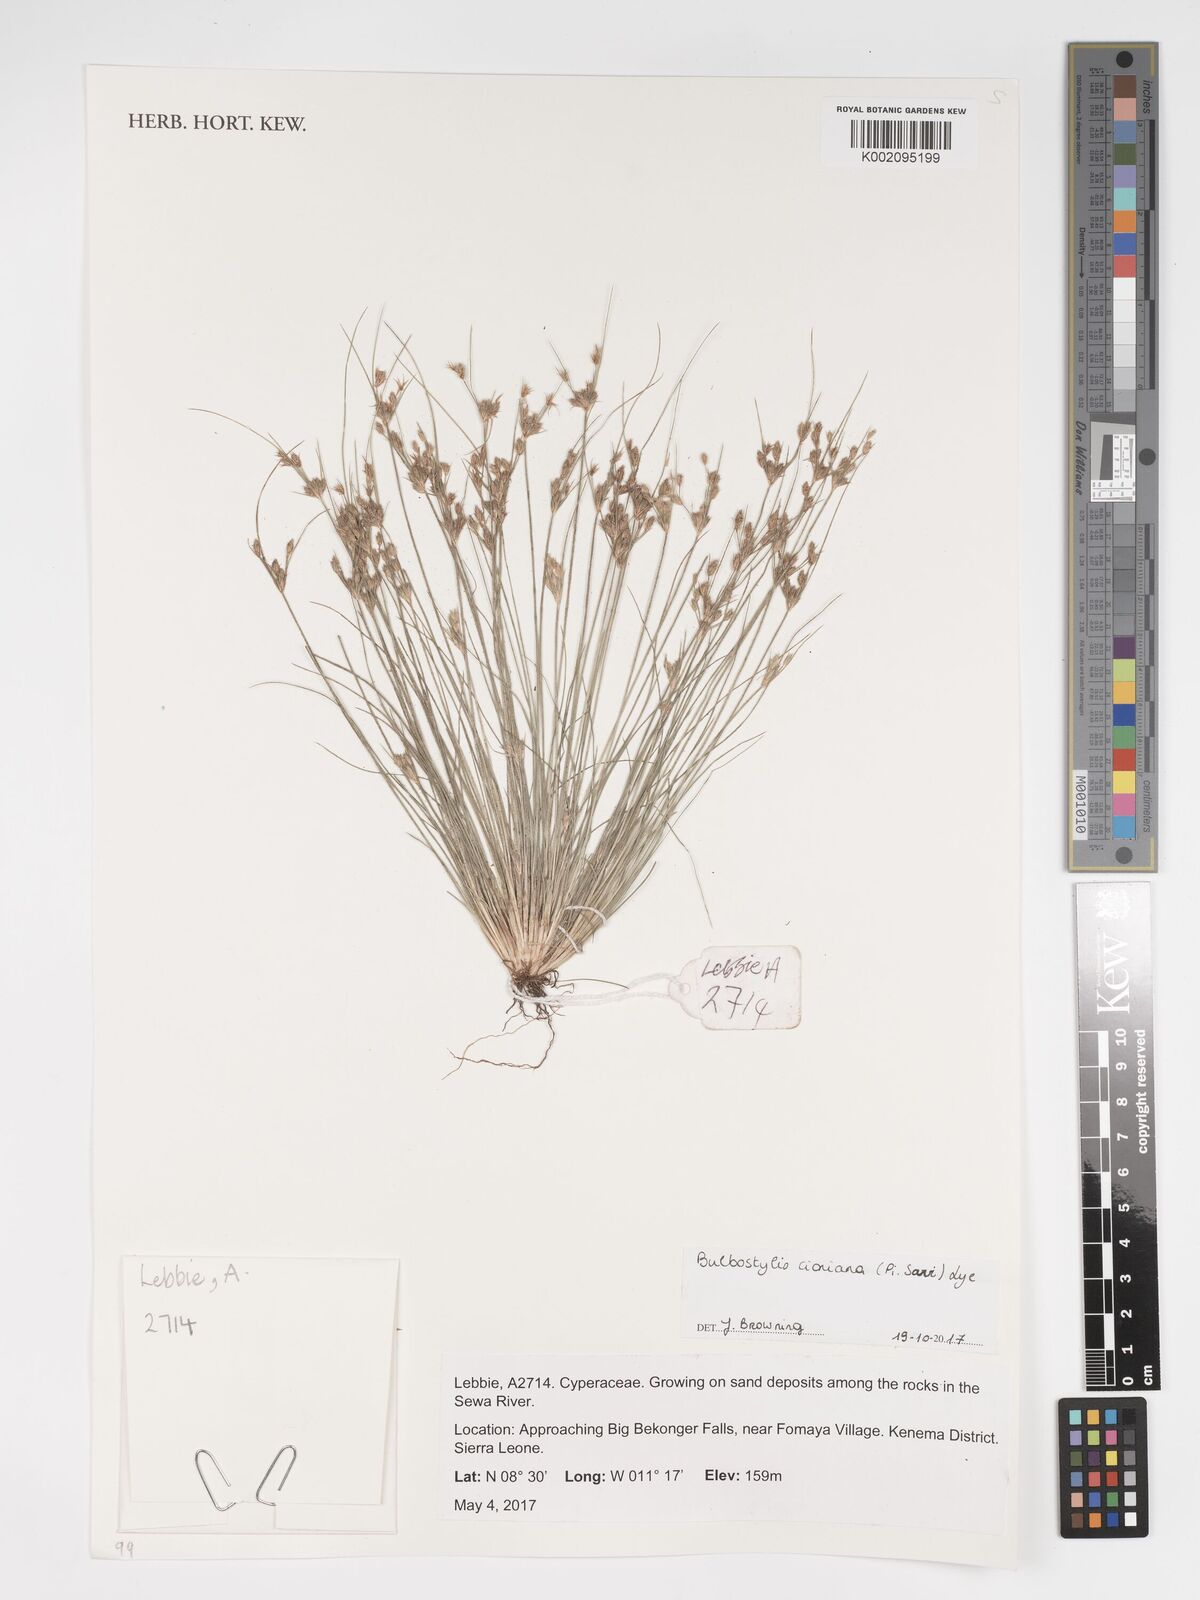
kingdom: Plantae
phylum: Tracheophyta
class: Liliopsida
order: Poales
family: Cyperaceae
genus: Bulbostylis
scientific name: Bulbostylis cioniana
